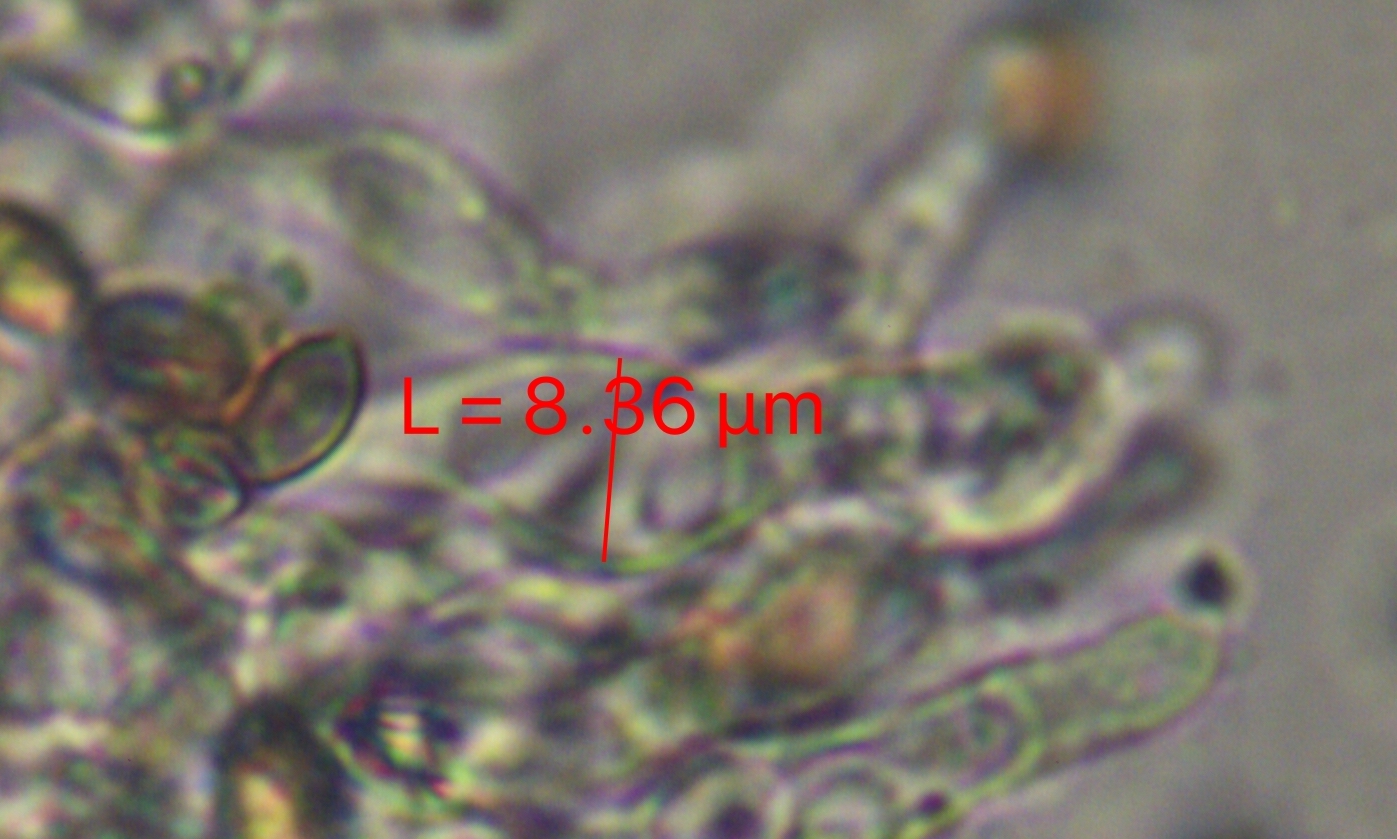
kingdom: Fungi
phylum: Basidiomycota
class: Agaricomycetes
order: Agaricales
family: Bolbitiaceae
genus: Conocybe
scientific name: Conocybe rugosa
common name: giftig dansehat
